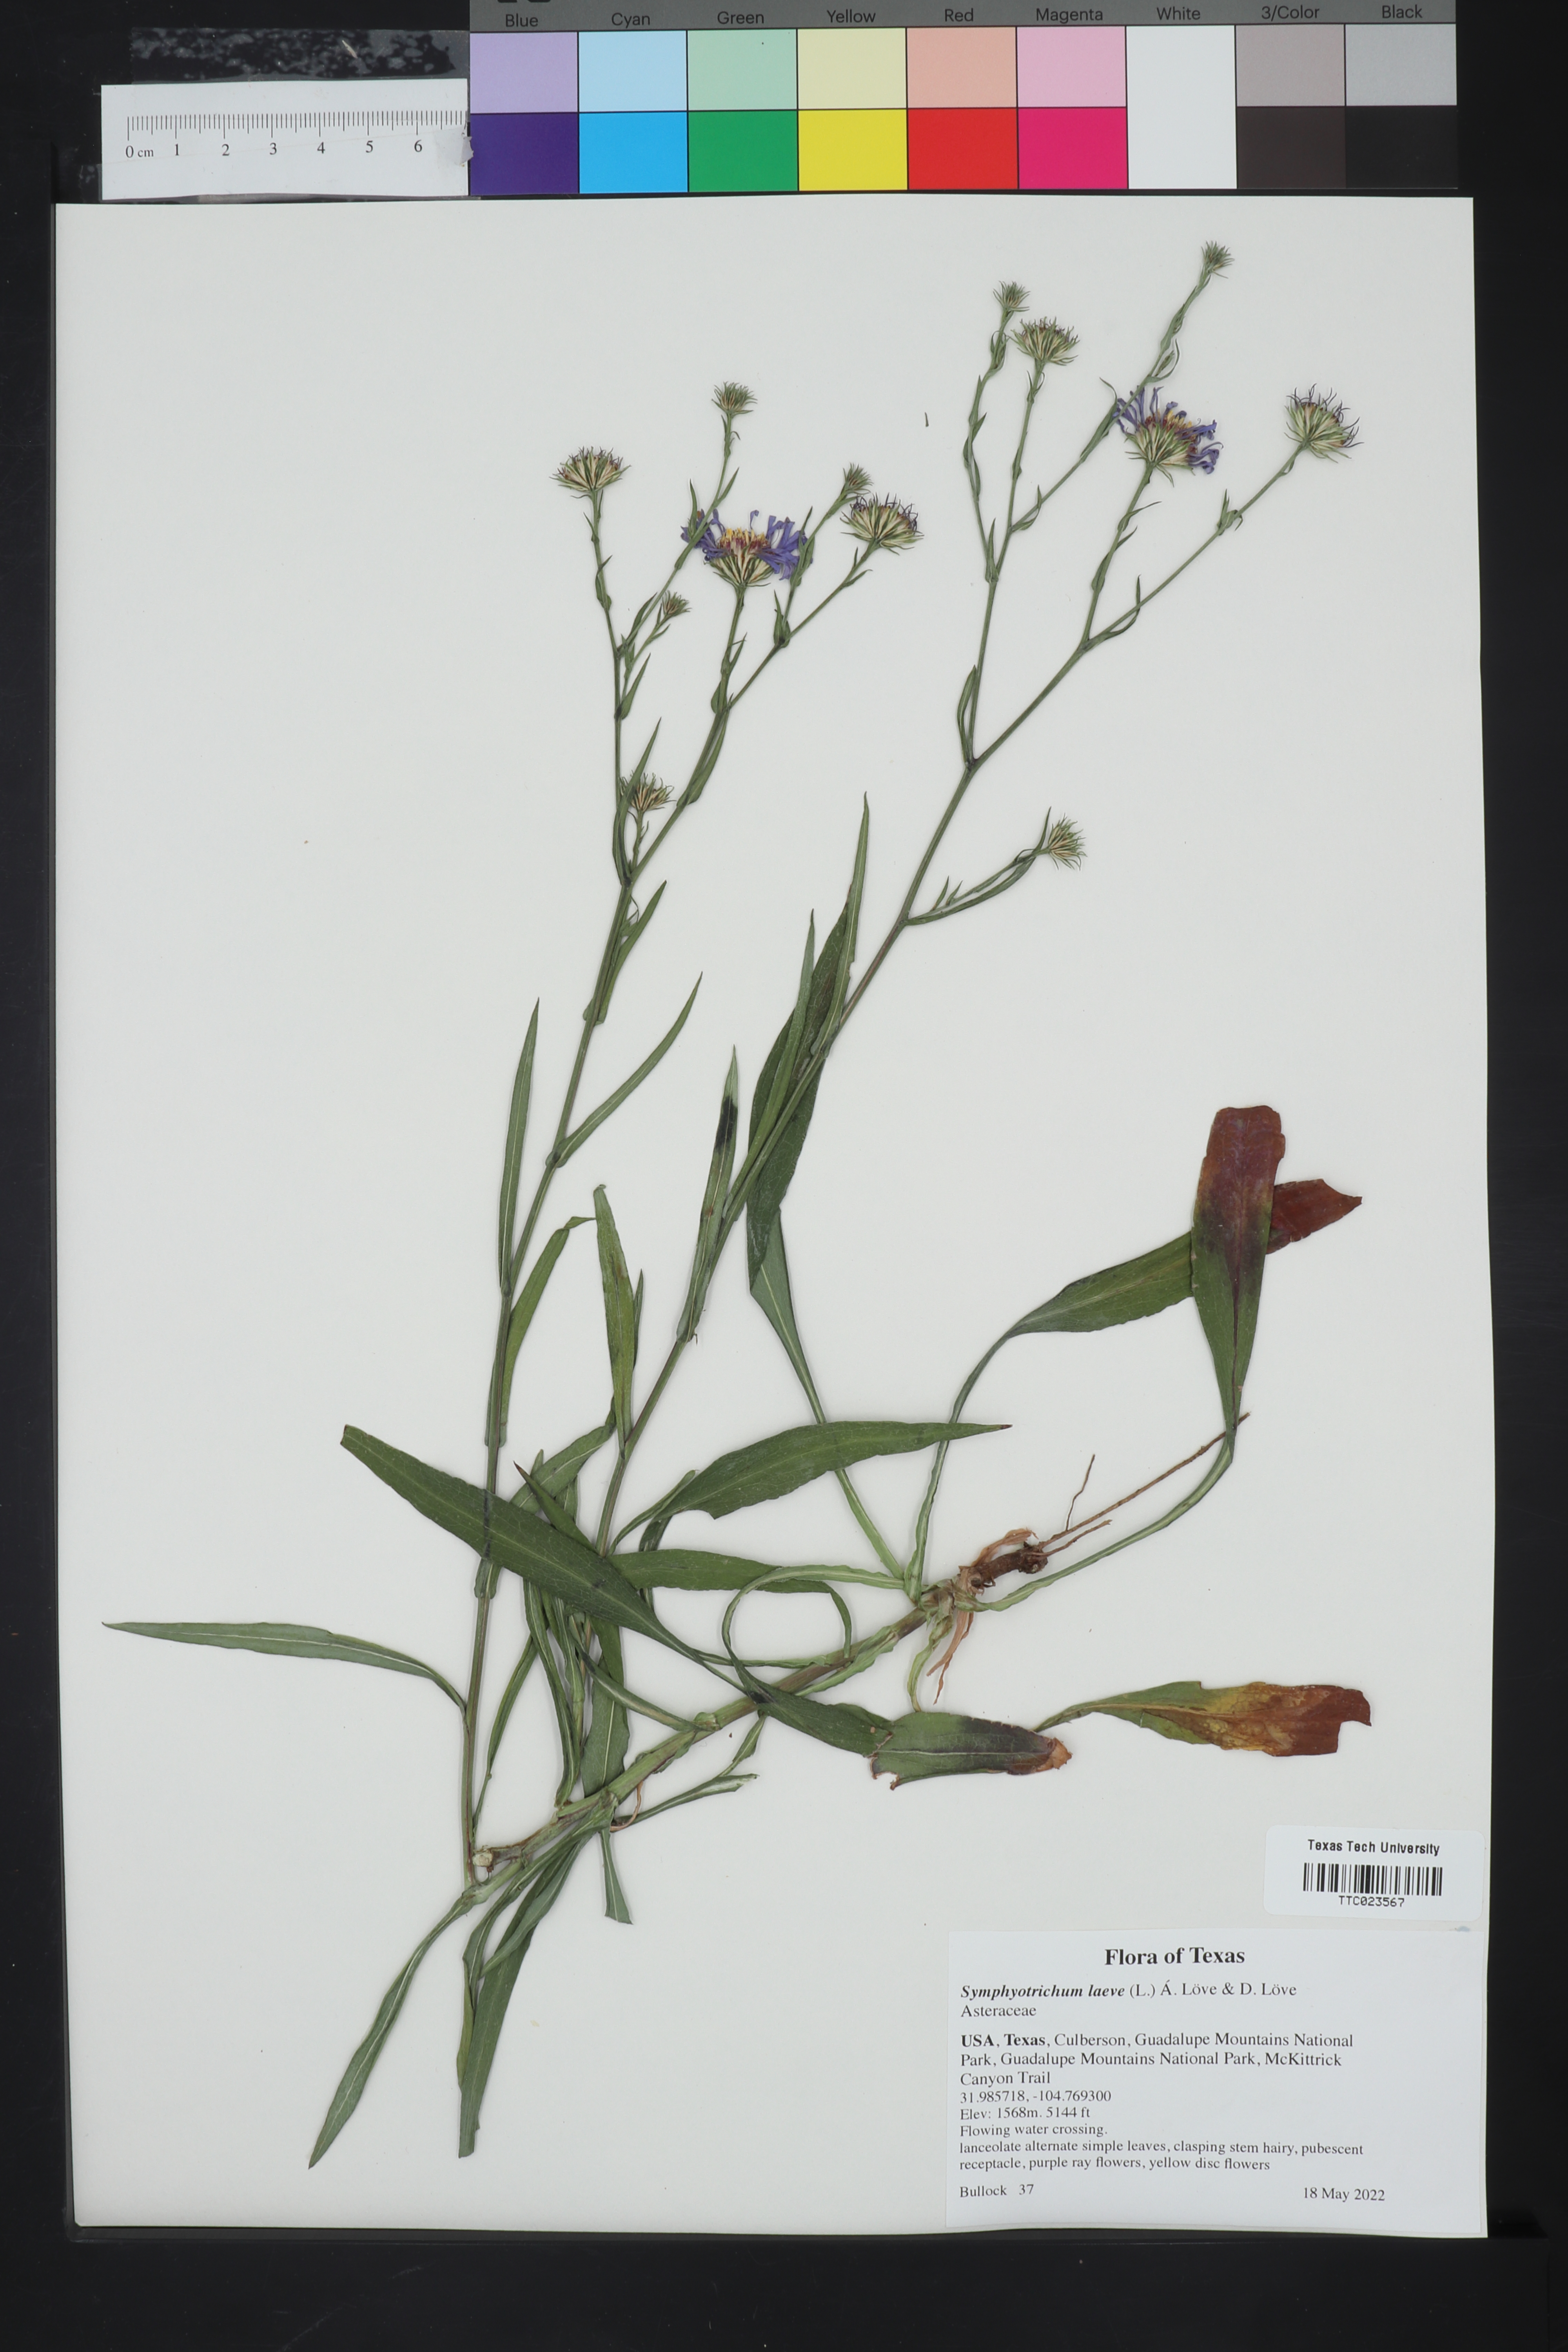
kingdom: Plantae
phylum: Tracheophyta
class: Magnoliopsida
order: Asterales
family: Asteraceae
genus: Symphyotrichum
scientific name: Symphyotrichum laeve
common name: Glaucous aster
